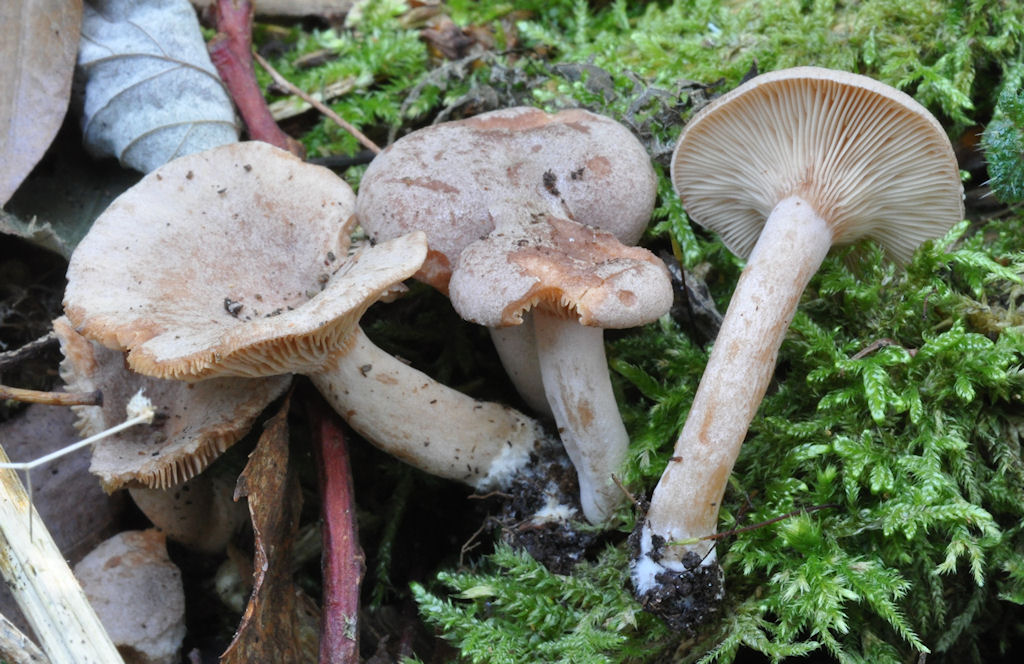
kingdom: Fungi
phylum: Basidiomycota
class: Agaricomycetes
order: Russulales
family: Russulaceae
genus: Lactarius
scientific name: Lactarius glyciosmus
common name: kokos-mælkehat
